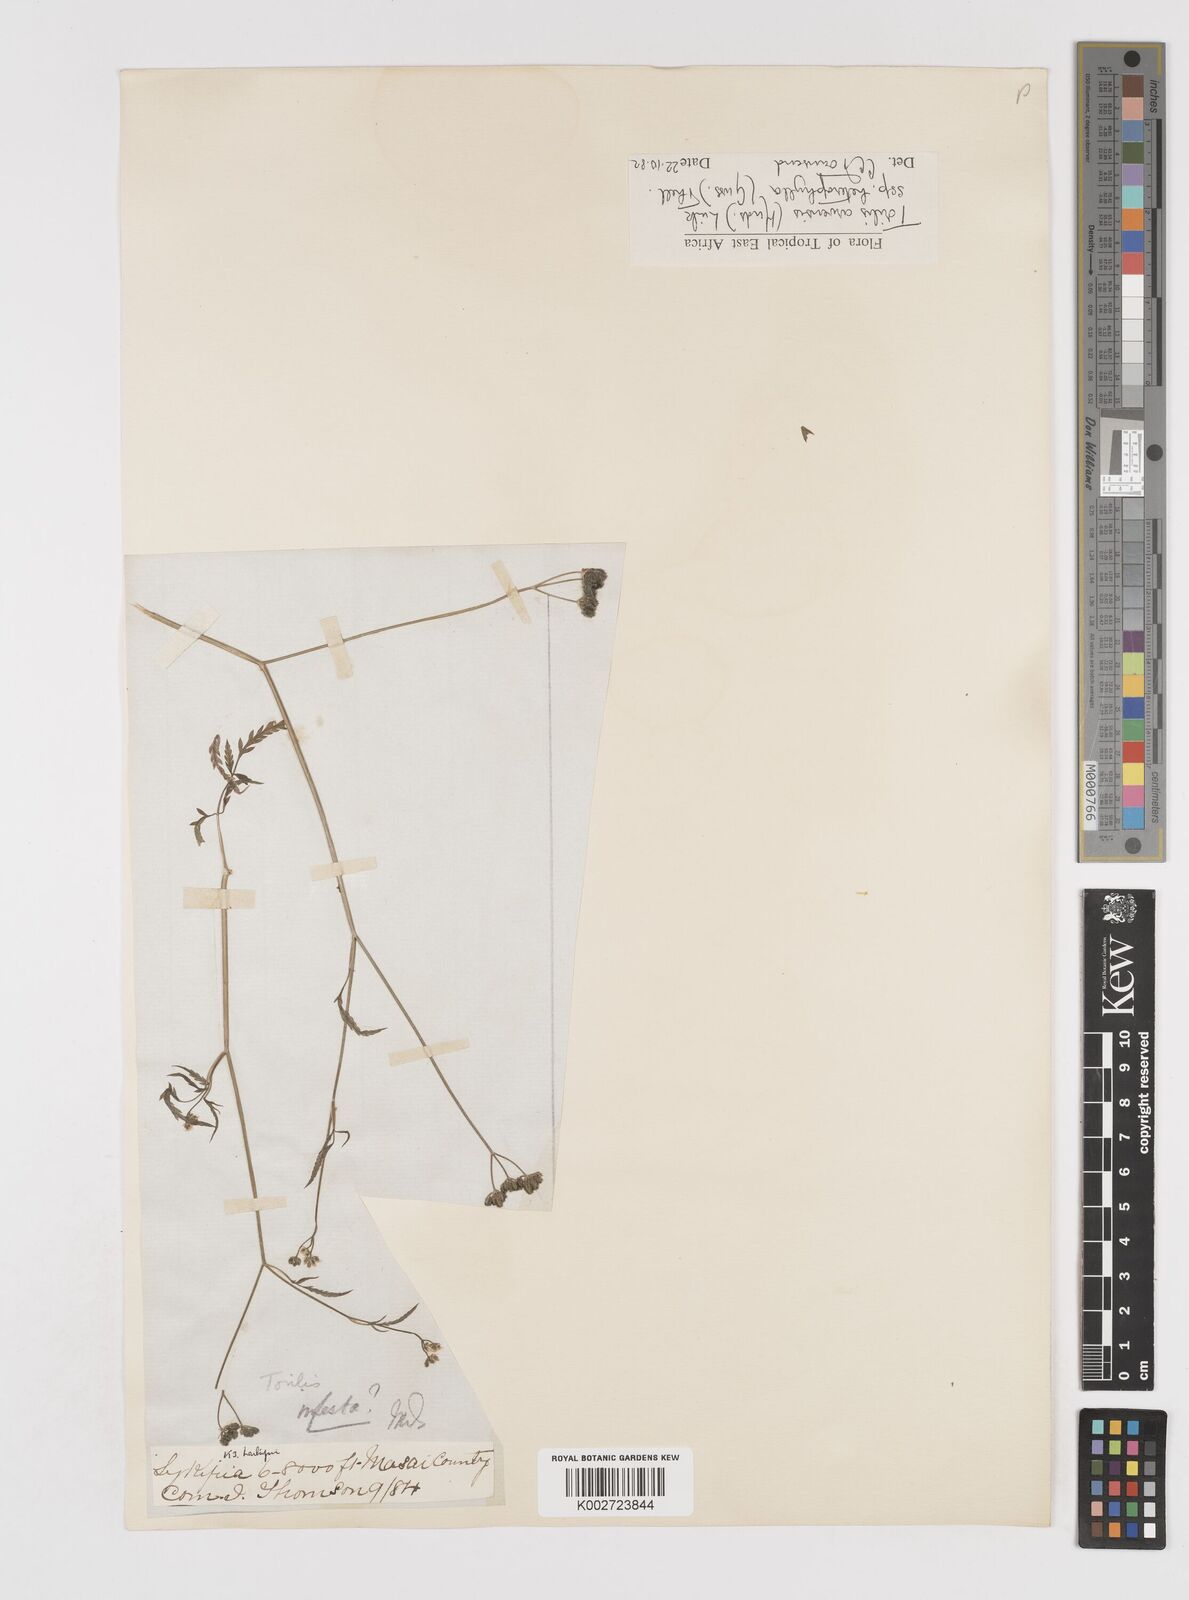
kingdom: Plantae
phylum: Tracheophyta
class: Magnoliopsida
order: Apiales
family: Apiaceae
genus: Torilis
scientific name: Torilis arvensis
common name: Spreading hedge-parsley
